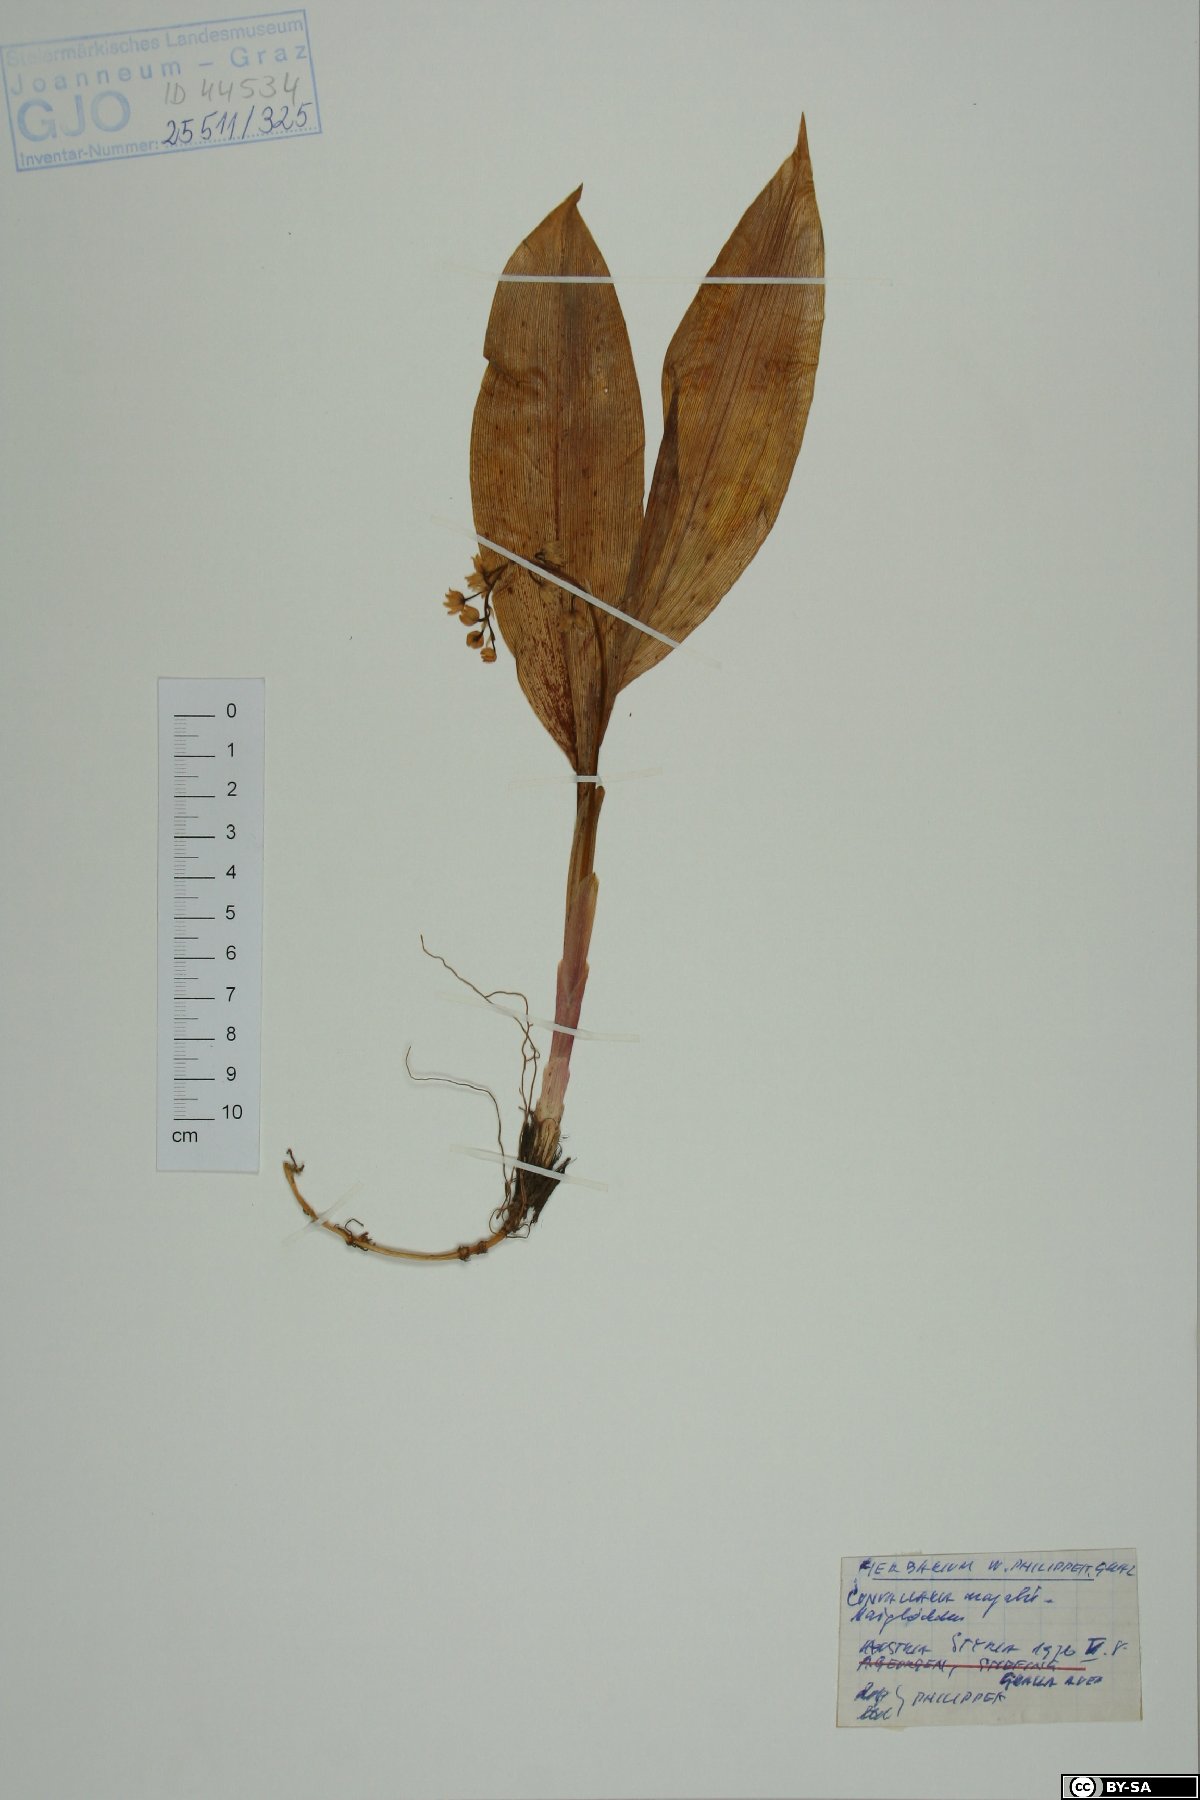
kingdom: Plantae
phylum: Tracheophyta
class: Liliopsida
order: Asparagales
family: Asparagaceae
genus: Convallaria
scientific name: Convallaria majalis
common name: Lily-of-the-valley
